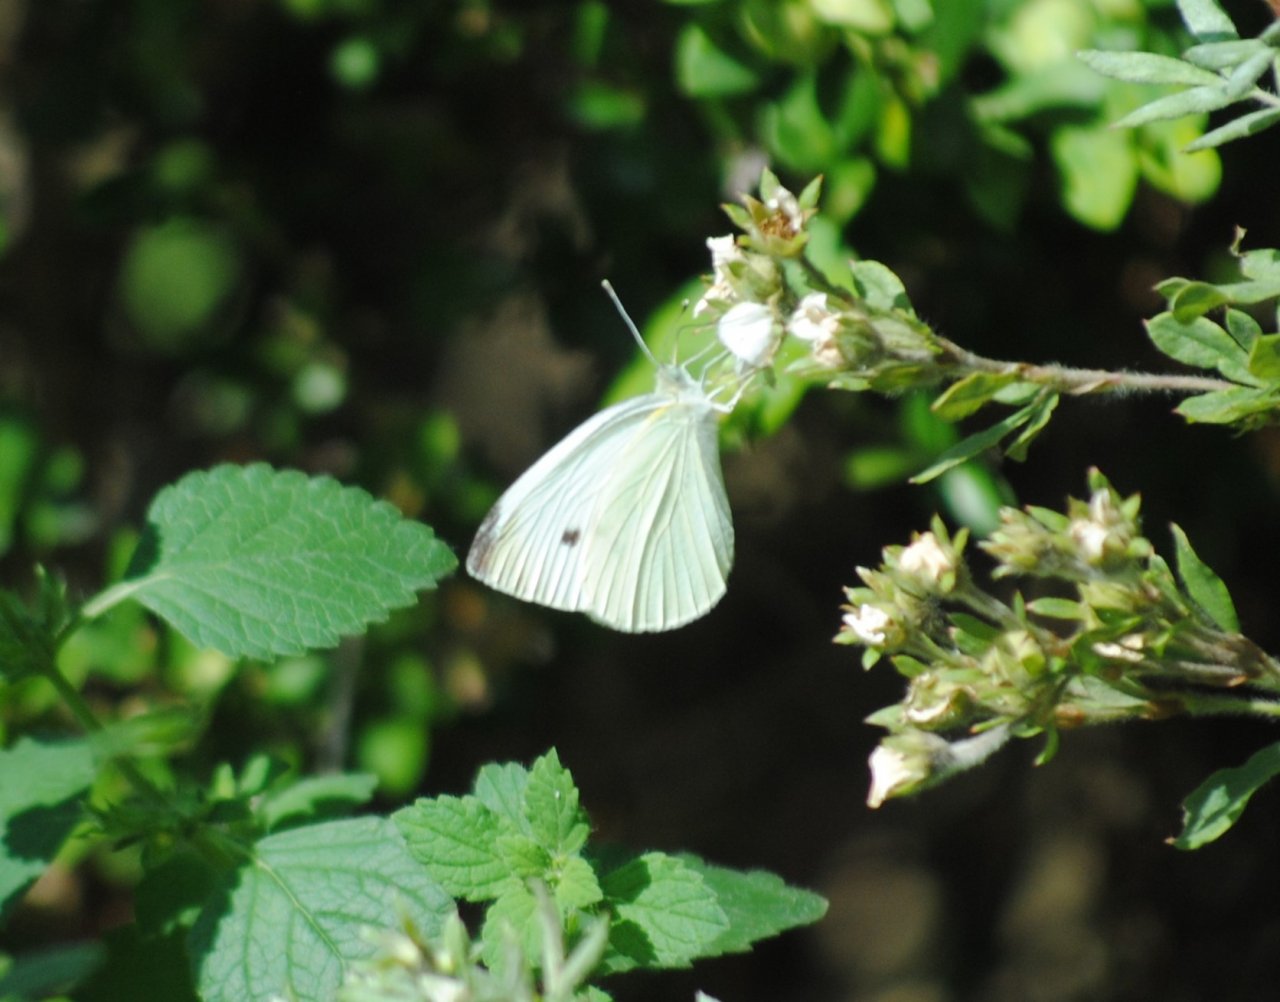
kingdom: Animalia
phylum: Arthropoda
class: Insecta
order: Lepidoptera
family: Pieridae
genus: Pieris
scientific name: Pieris rapae
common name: Cabbage White
